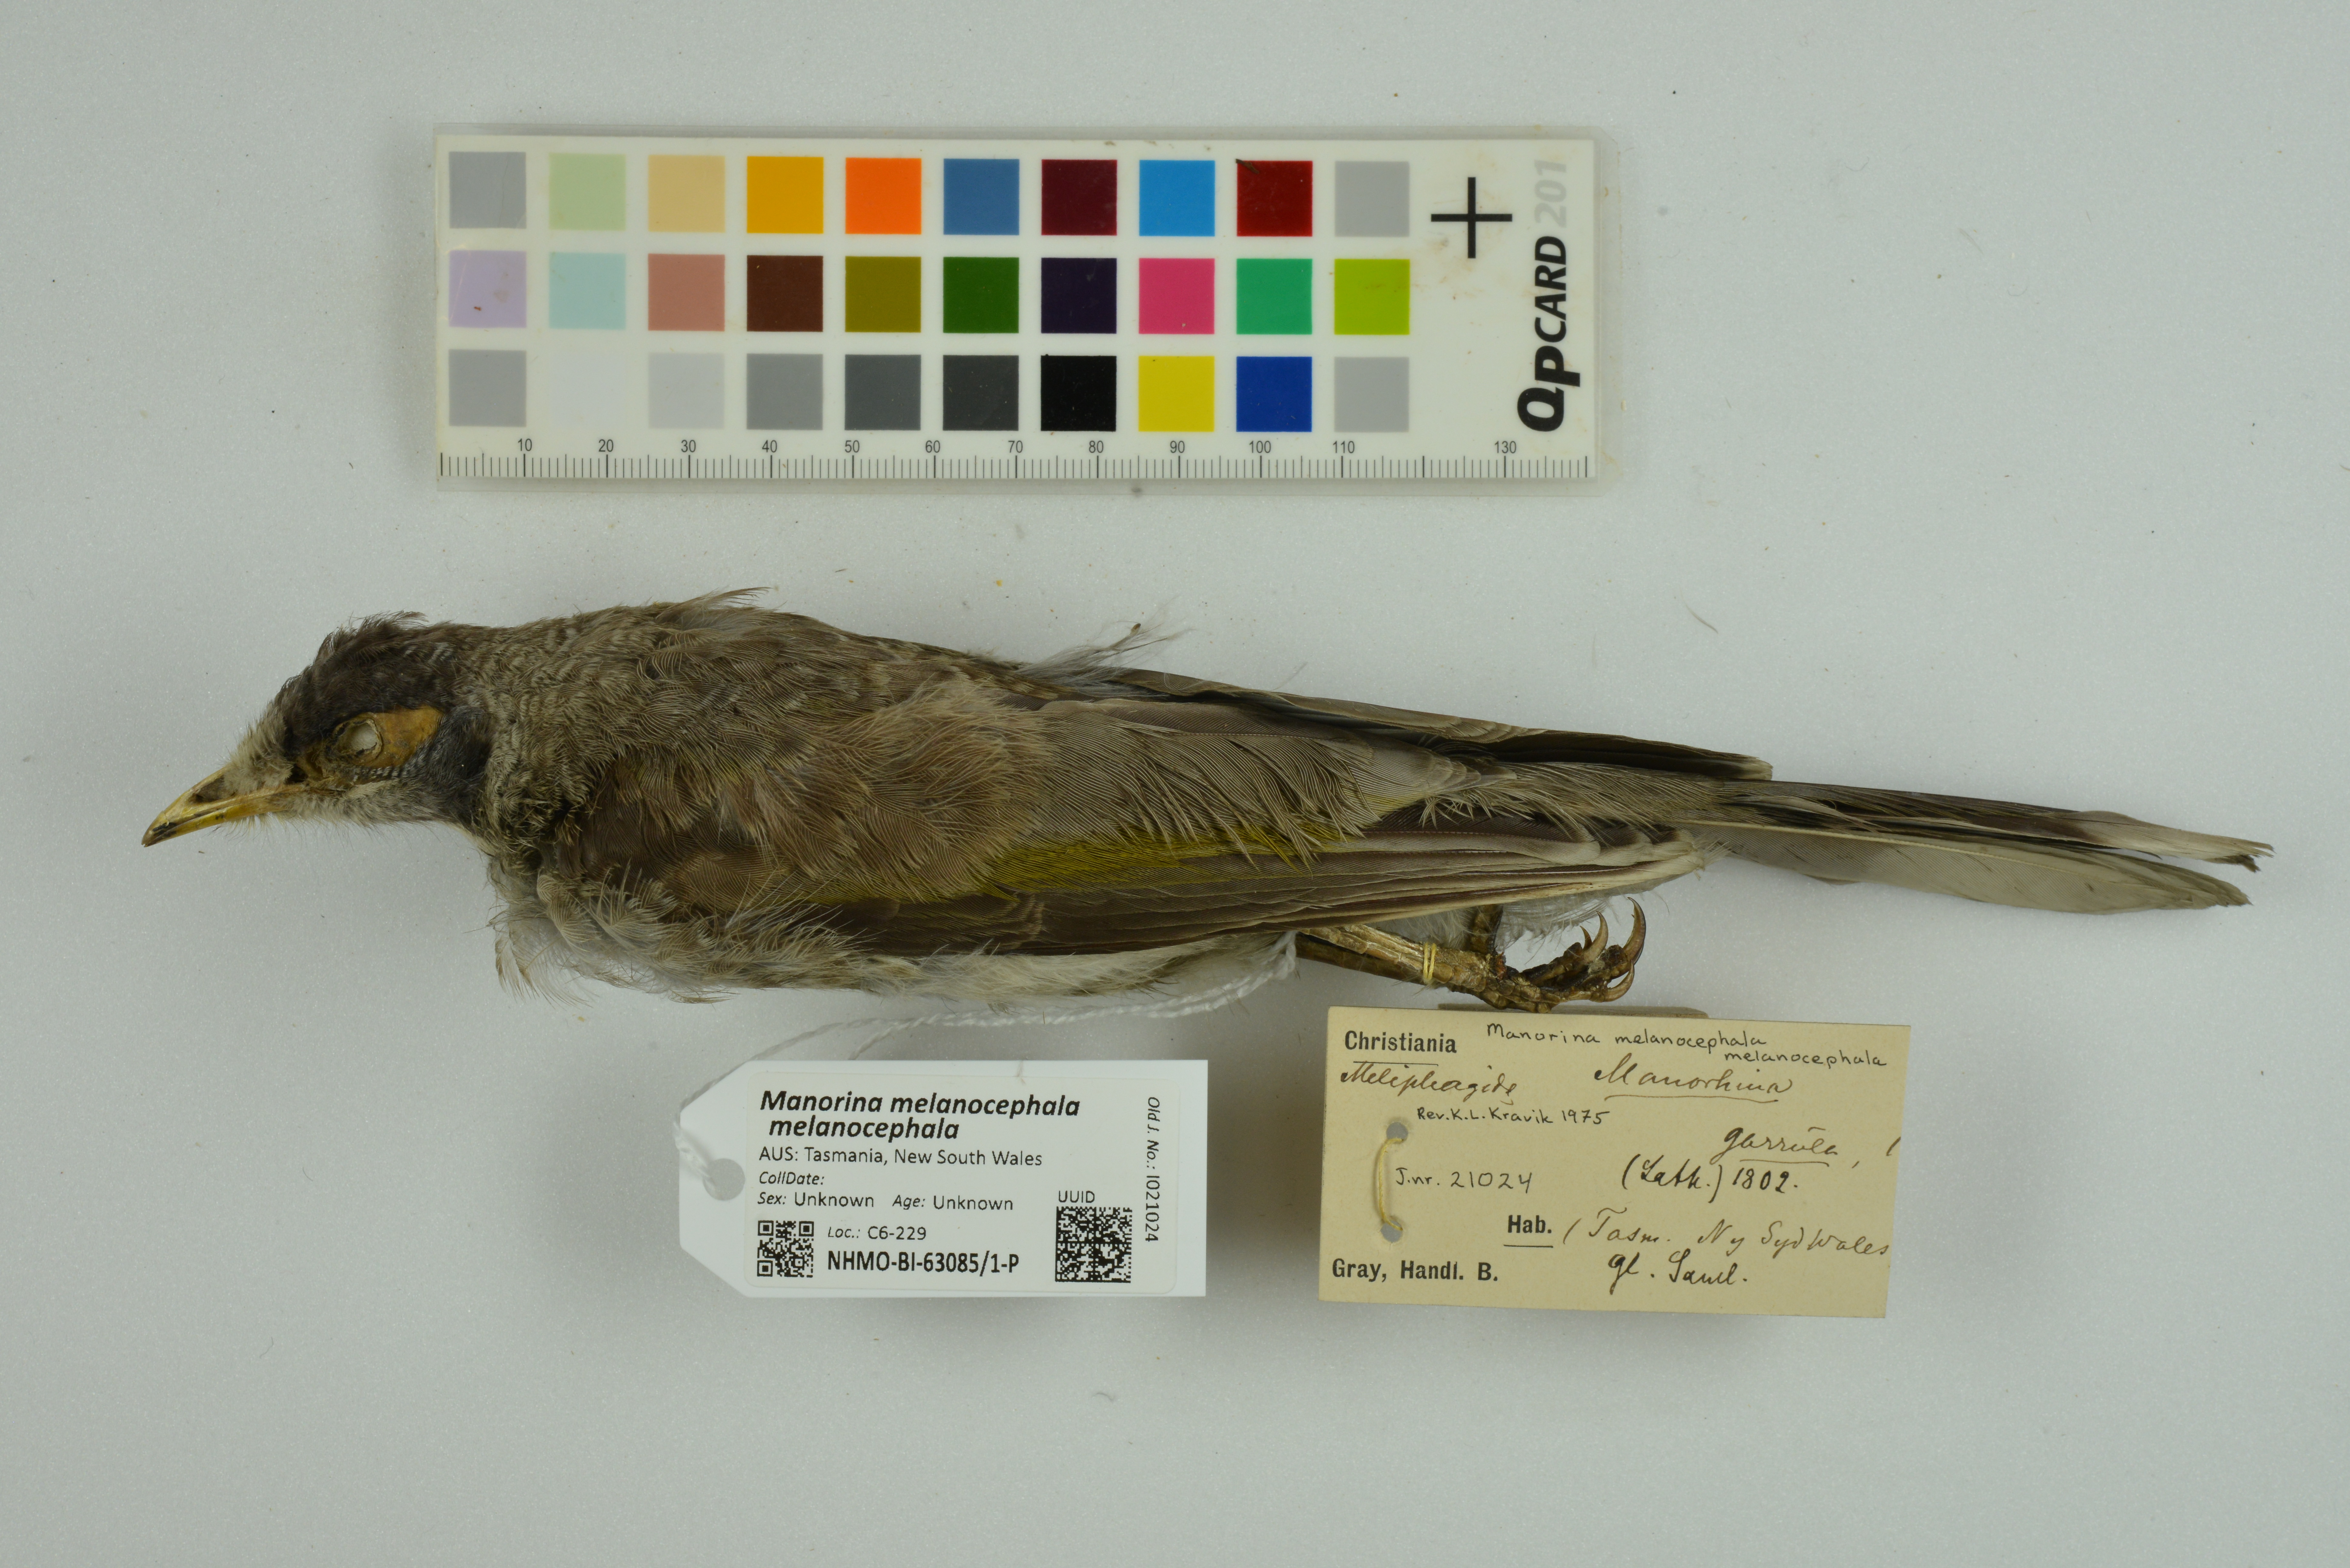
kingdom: Animalia
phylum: Chordata
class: Aves
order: Passeriformes
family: Meliphagidae
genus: Manorina
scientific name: Manorina melanocephala
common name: Noisy miner
